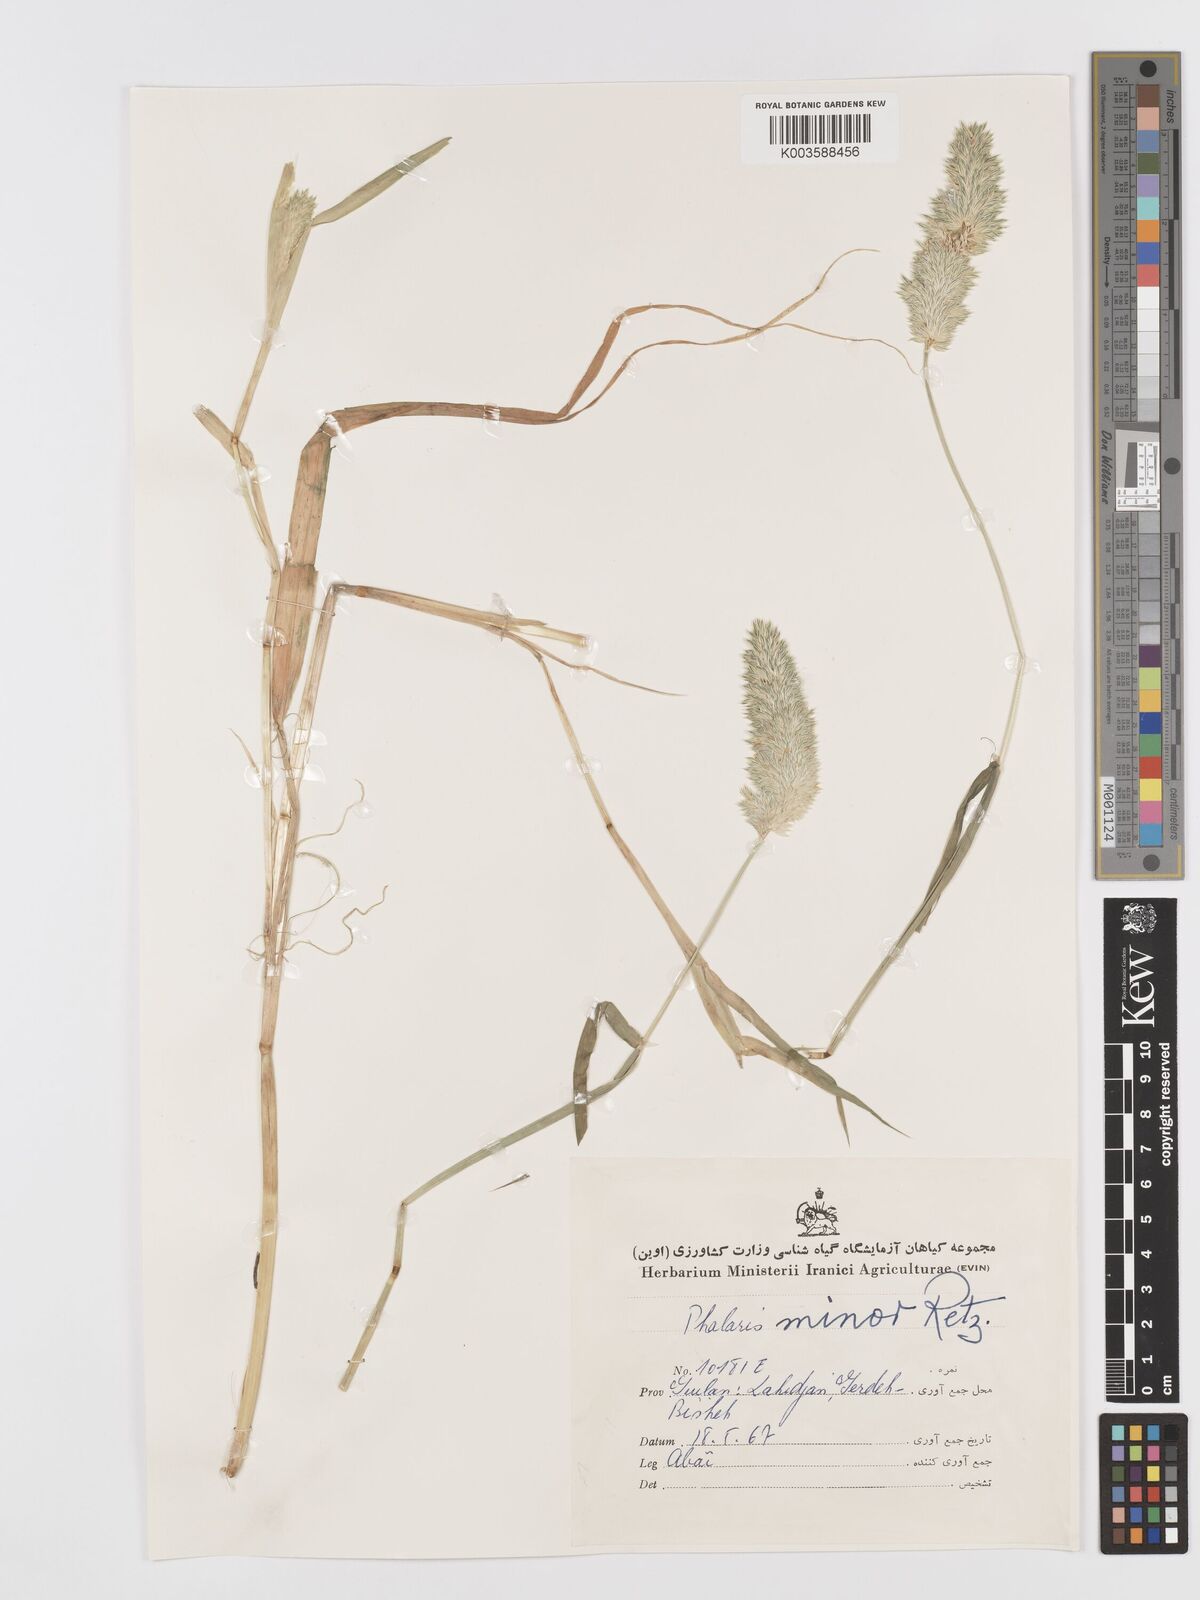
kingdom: Plantae
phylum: Tracheophyta
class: Liliopsida
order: Poales
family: Poaceae
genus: Phalaris
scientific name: Phalaris minor
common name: Littleseed canarygrass
